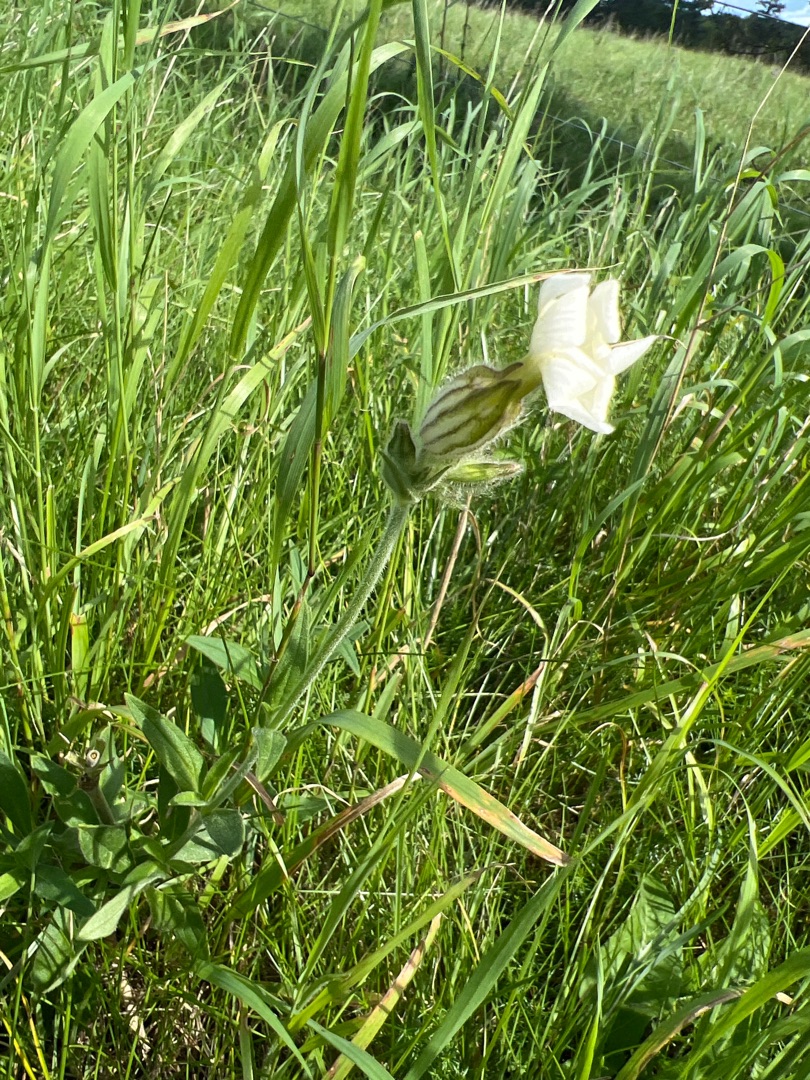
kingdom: Plantae
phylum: Tracheophyta
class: Magnoliopsida
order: Caryophyllales
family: Caryophyllaceae
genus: Silene
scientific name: Silene latifolia
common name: Aftenpragtstjerne
